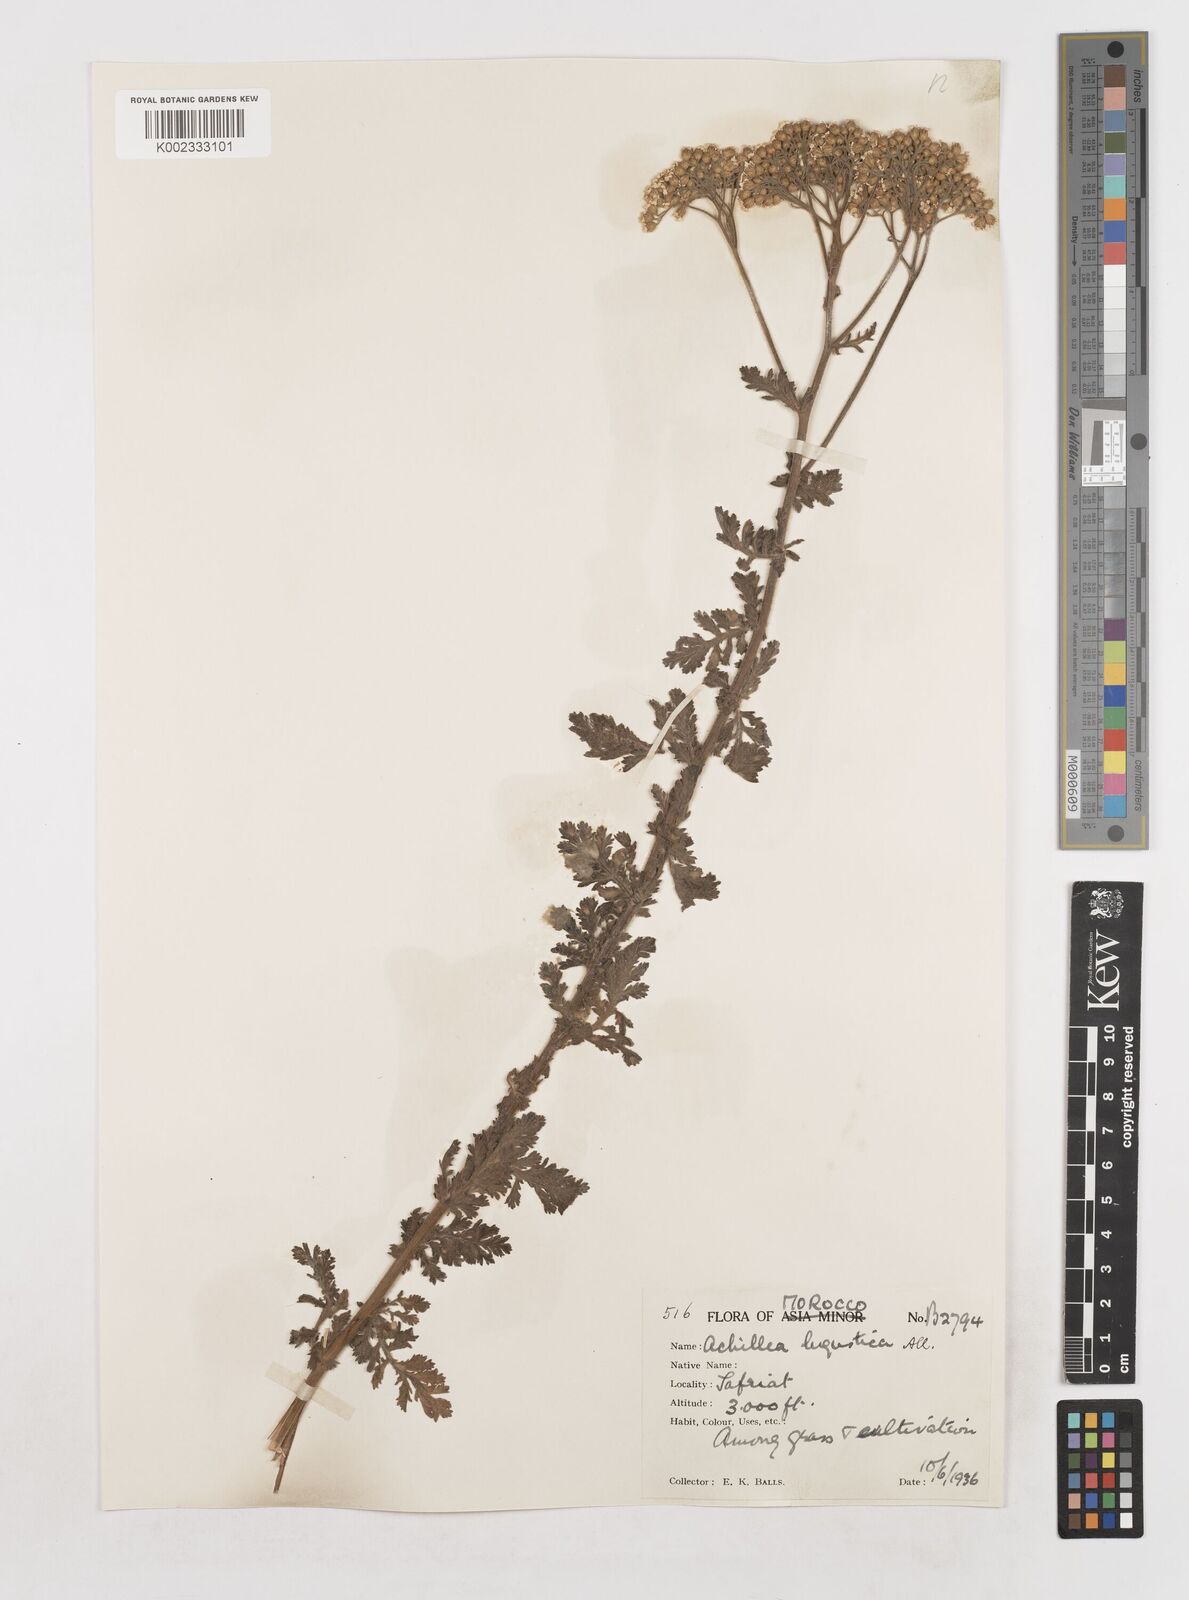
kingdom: Plantae
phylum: Tracheophyta
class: Magnoliopsida
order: Asterales
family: Asteraceae
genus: Achillea
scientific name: Achillea ligustica
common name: Southern yarrow
